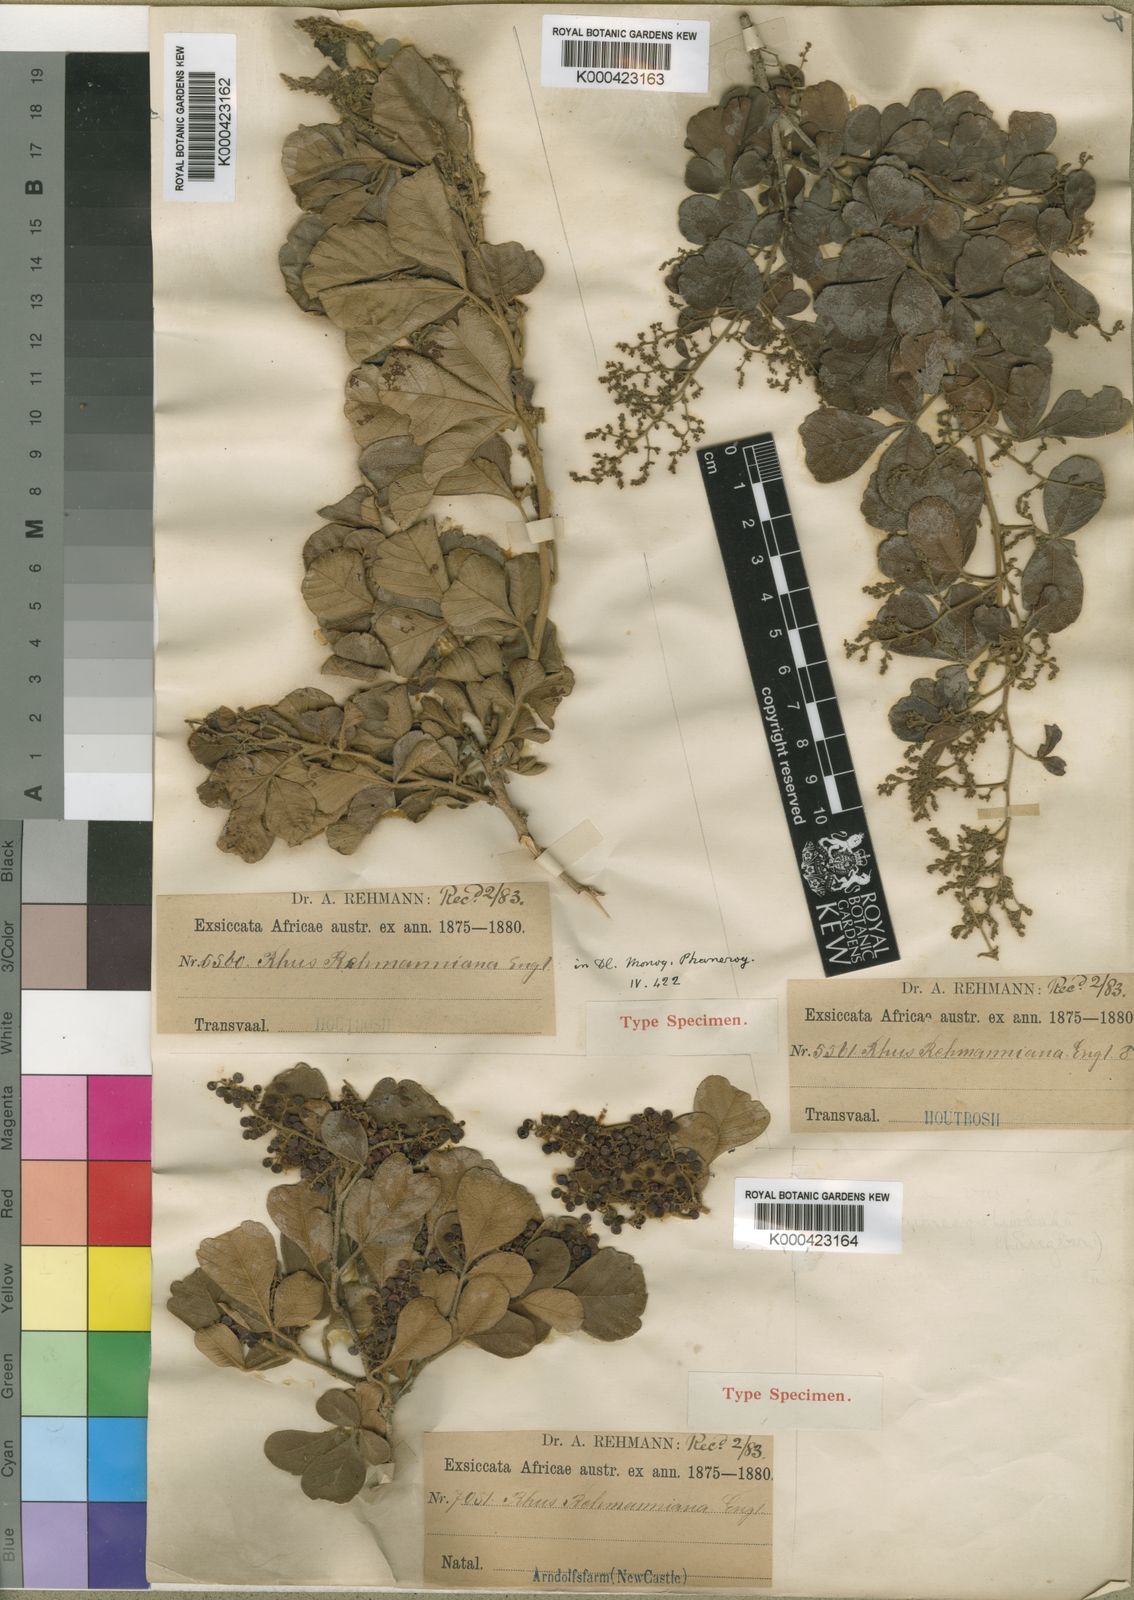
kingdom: Plantae
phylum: Tracheophyta
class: Magnoliopsida
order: Sapindales
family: Anacardiaceae
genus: Rhus
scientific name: Rhus
